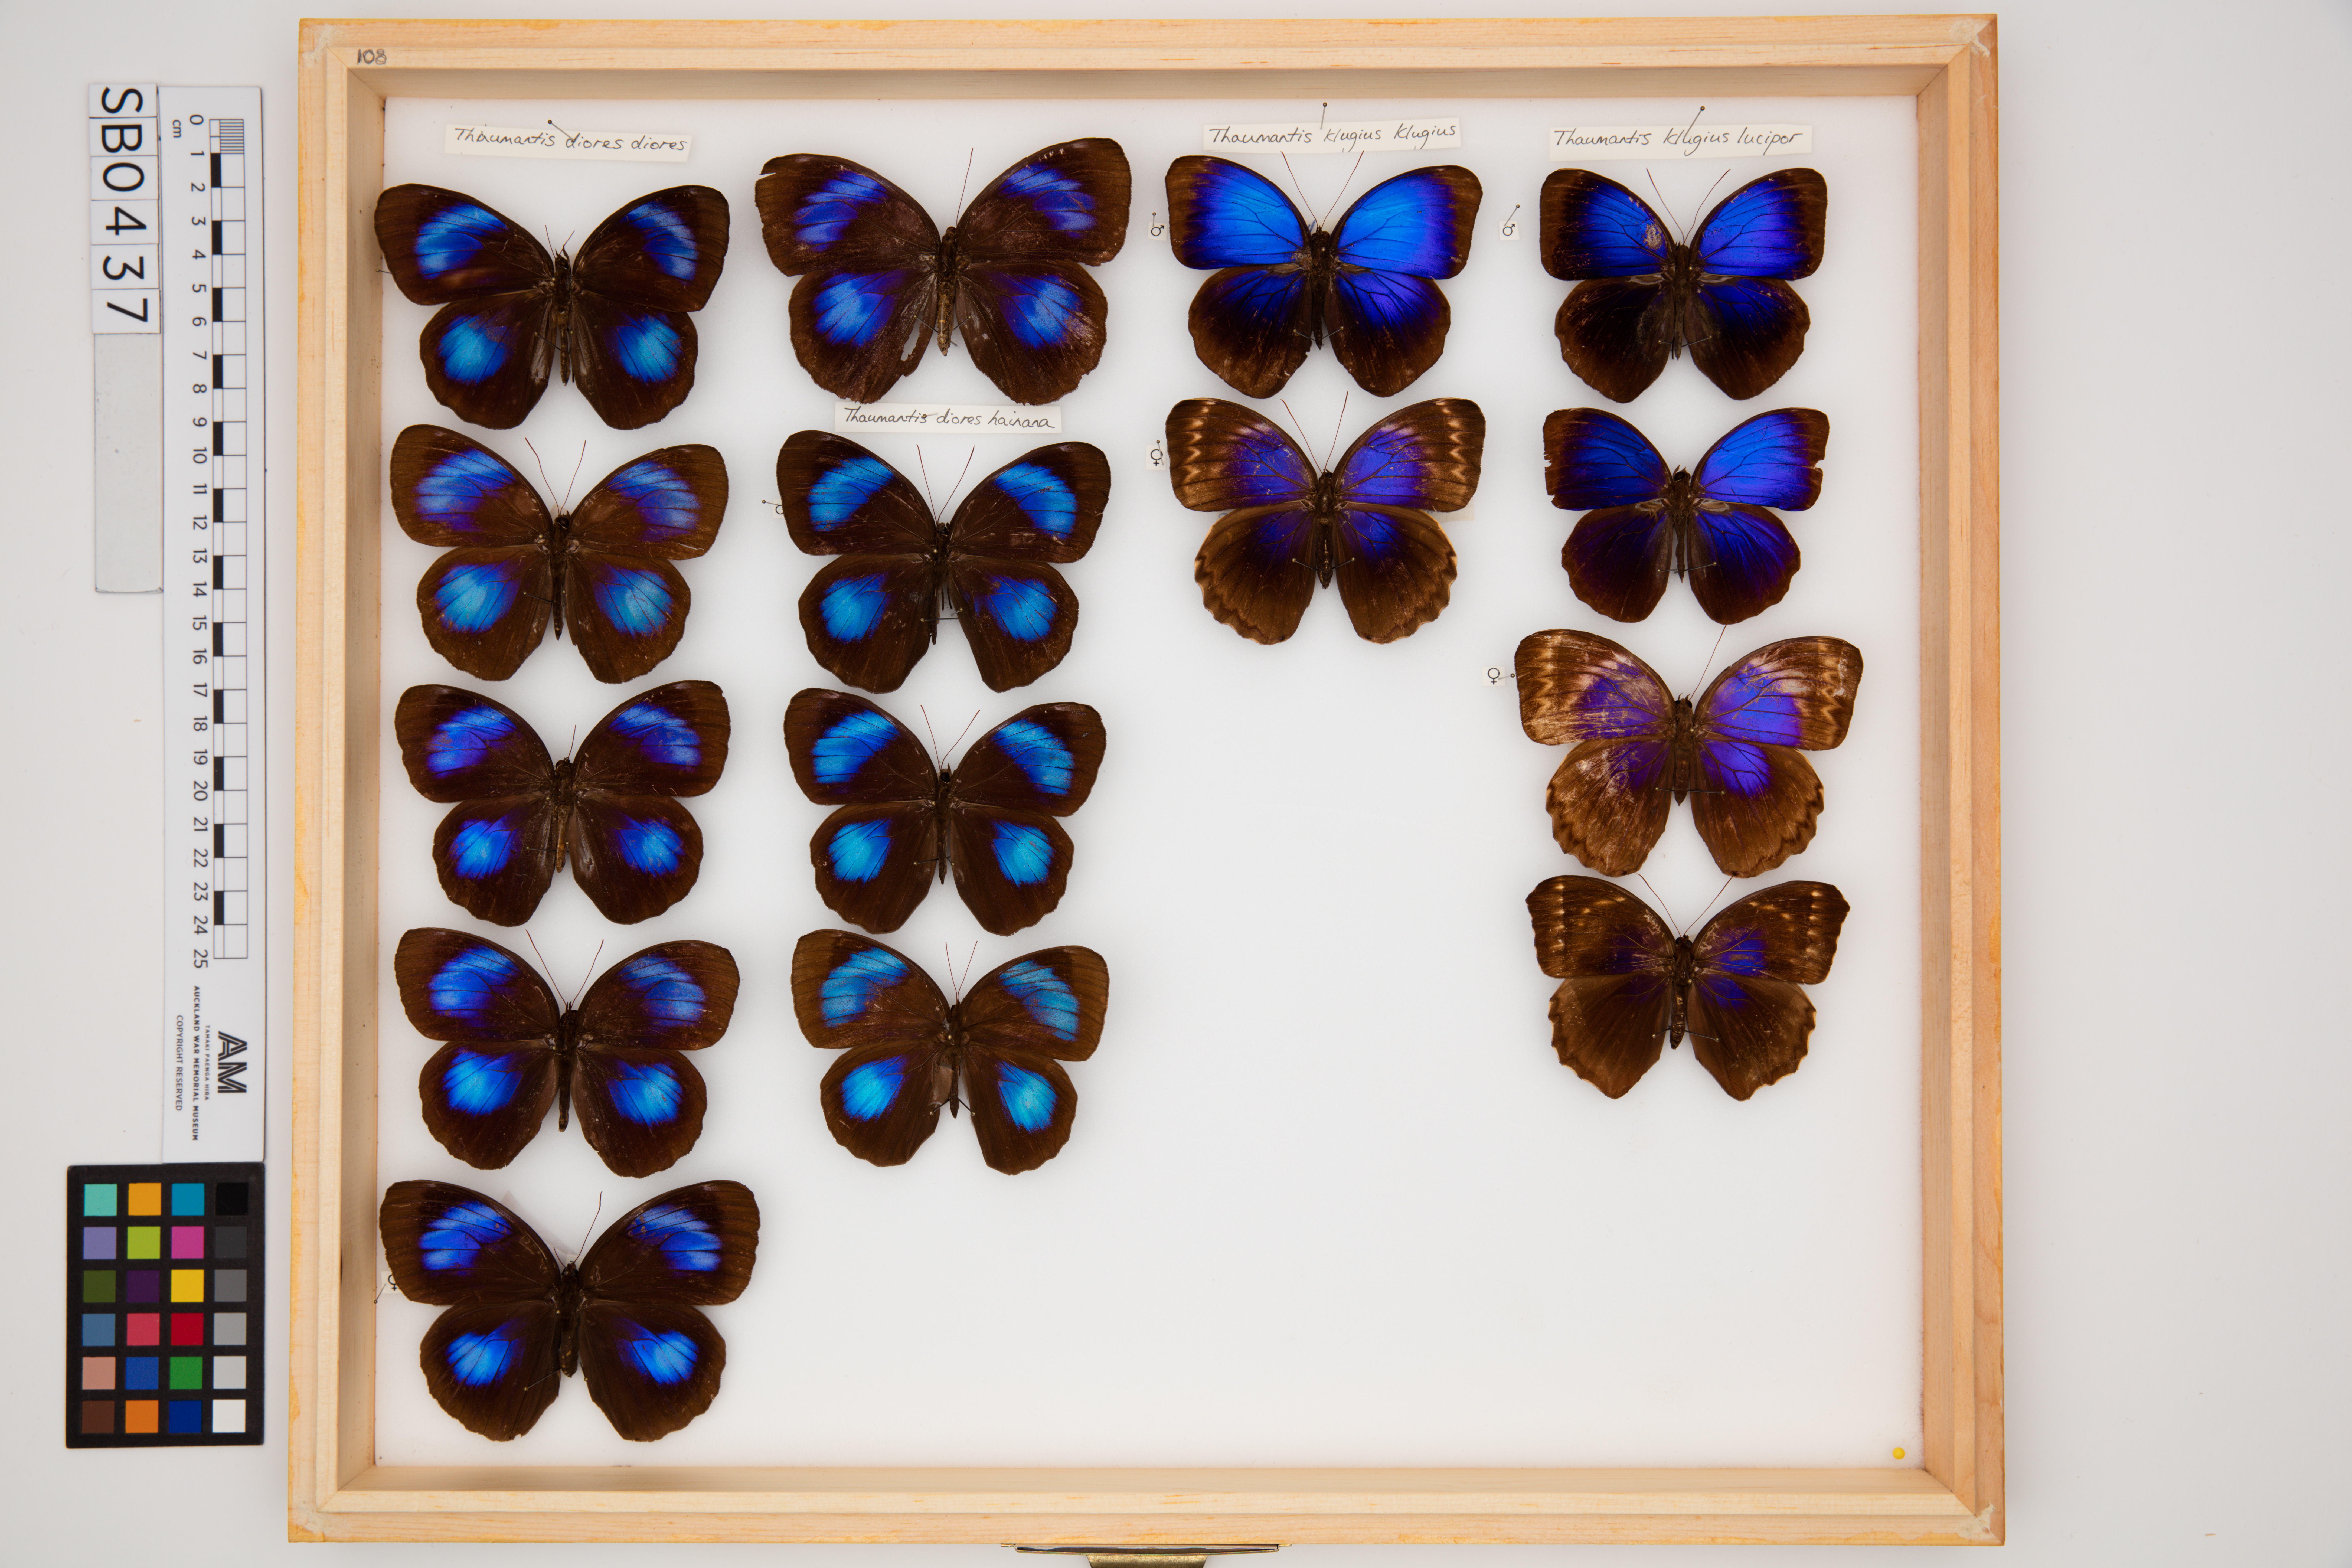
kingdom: Animalia
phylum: Arthropoda
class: Insecta
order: Lepidoptera
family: Nymphalidae
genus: Thaumantis
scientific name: Thaumantis klugius
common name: Dark blue jungle glory
